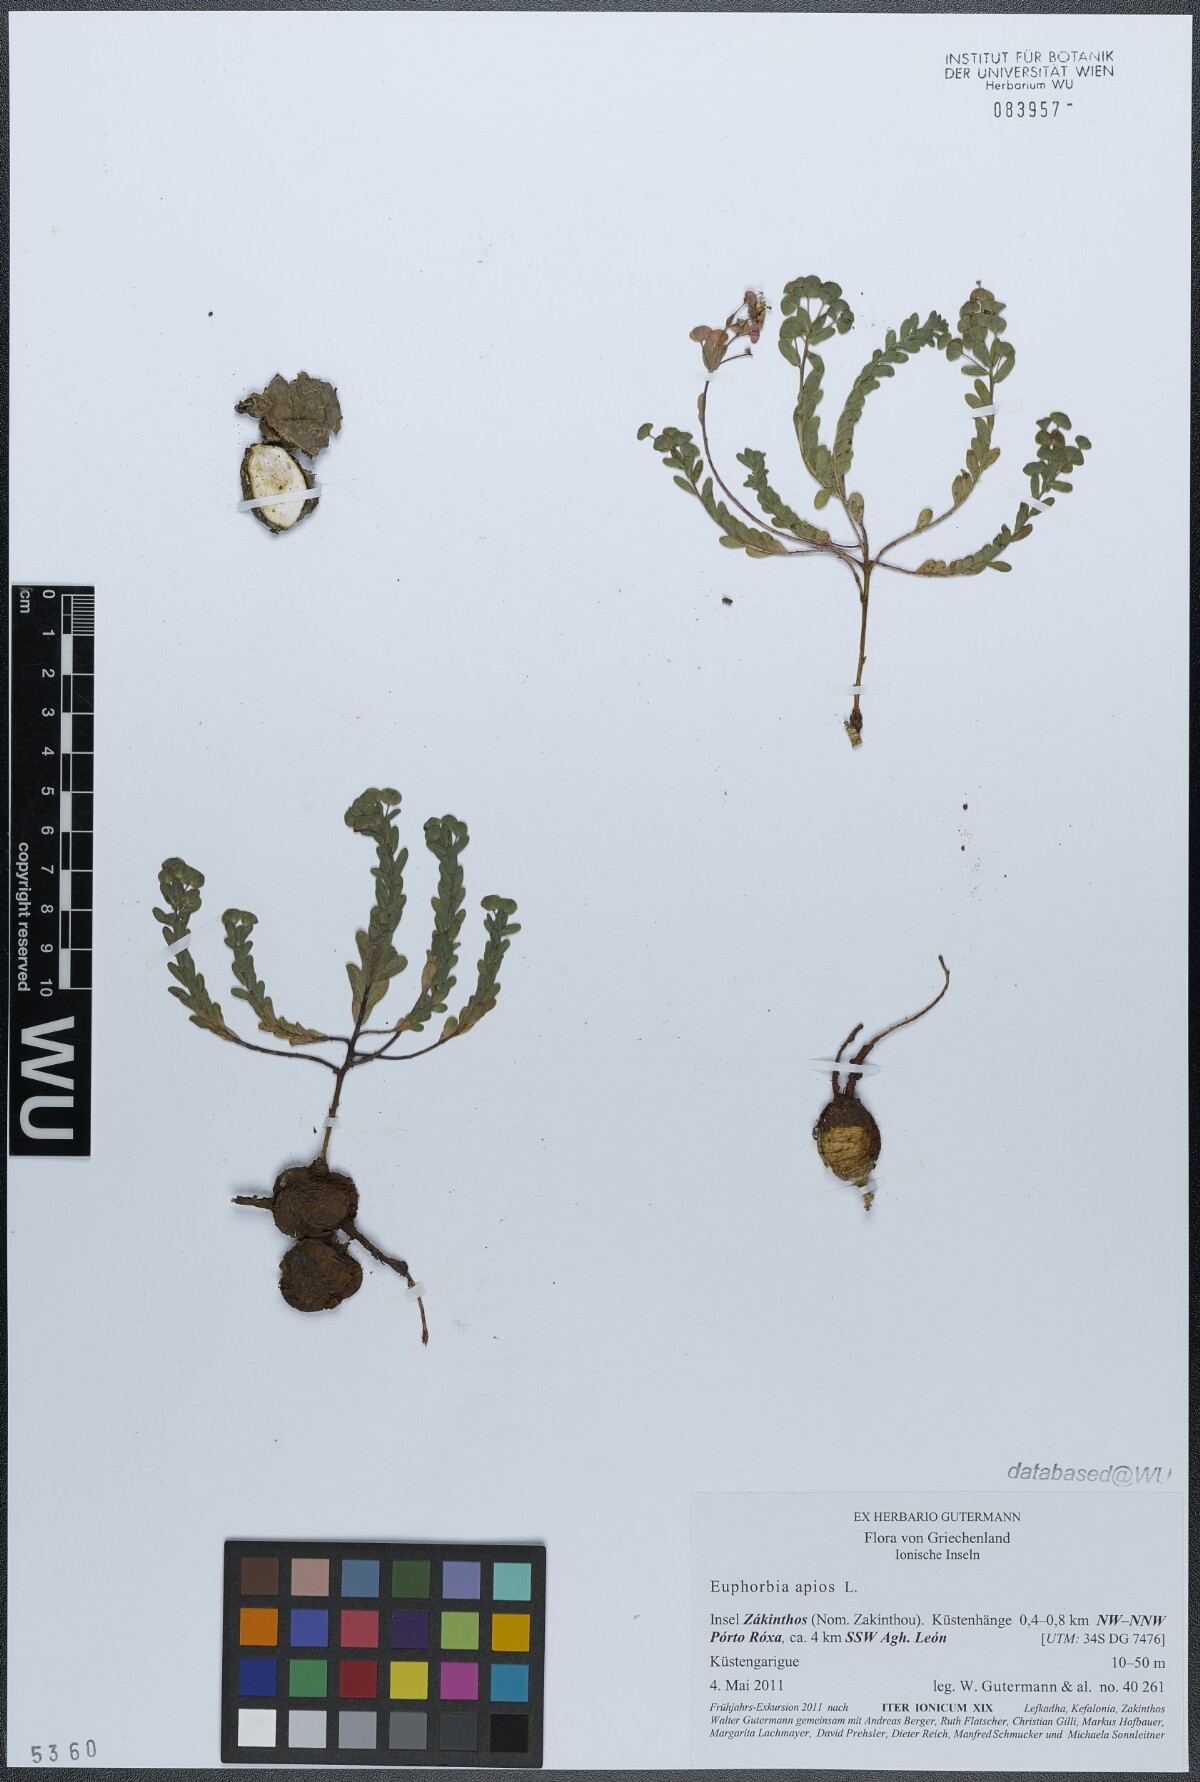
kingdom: Plantae
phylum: Tracheophyta
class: Magnoliopsida
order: Malpighiales
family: Euphorbiaceae
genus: Euphorbia
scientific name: Euphorbia apios
